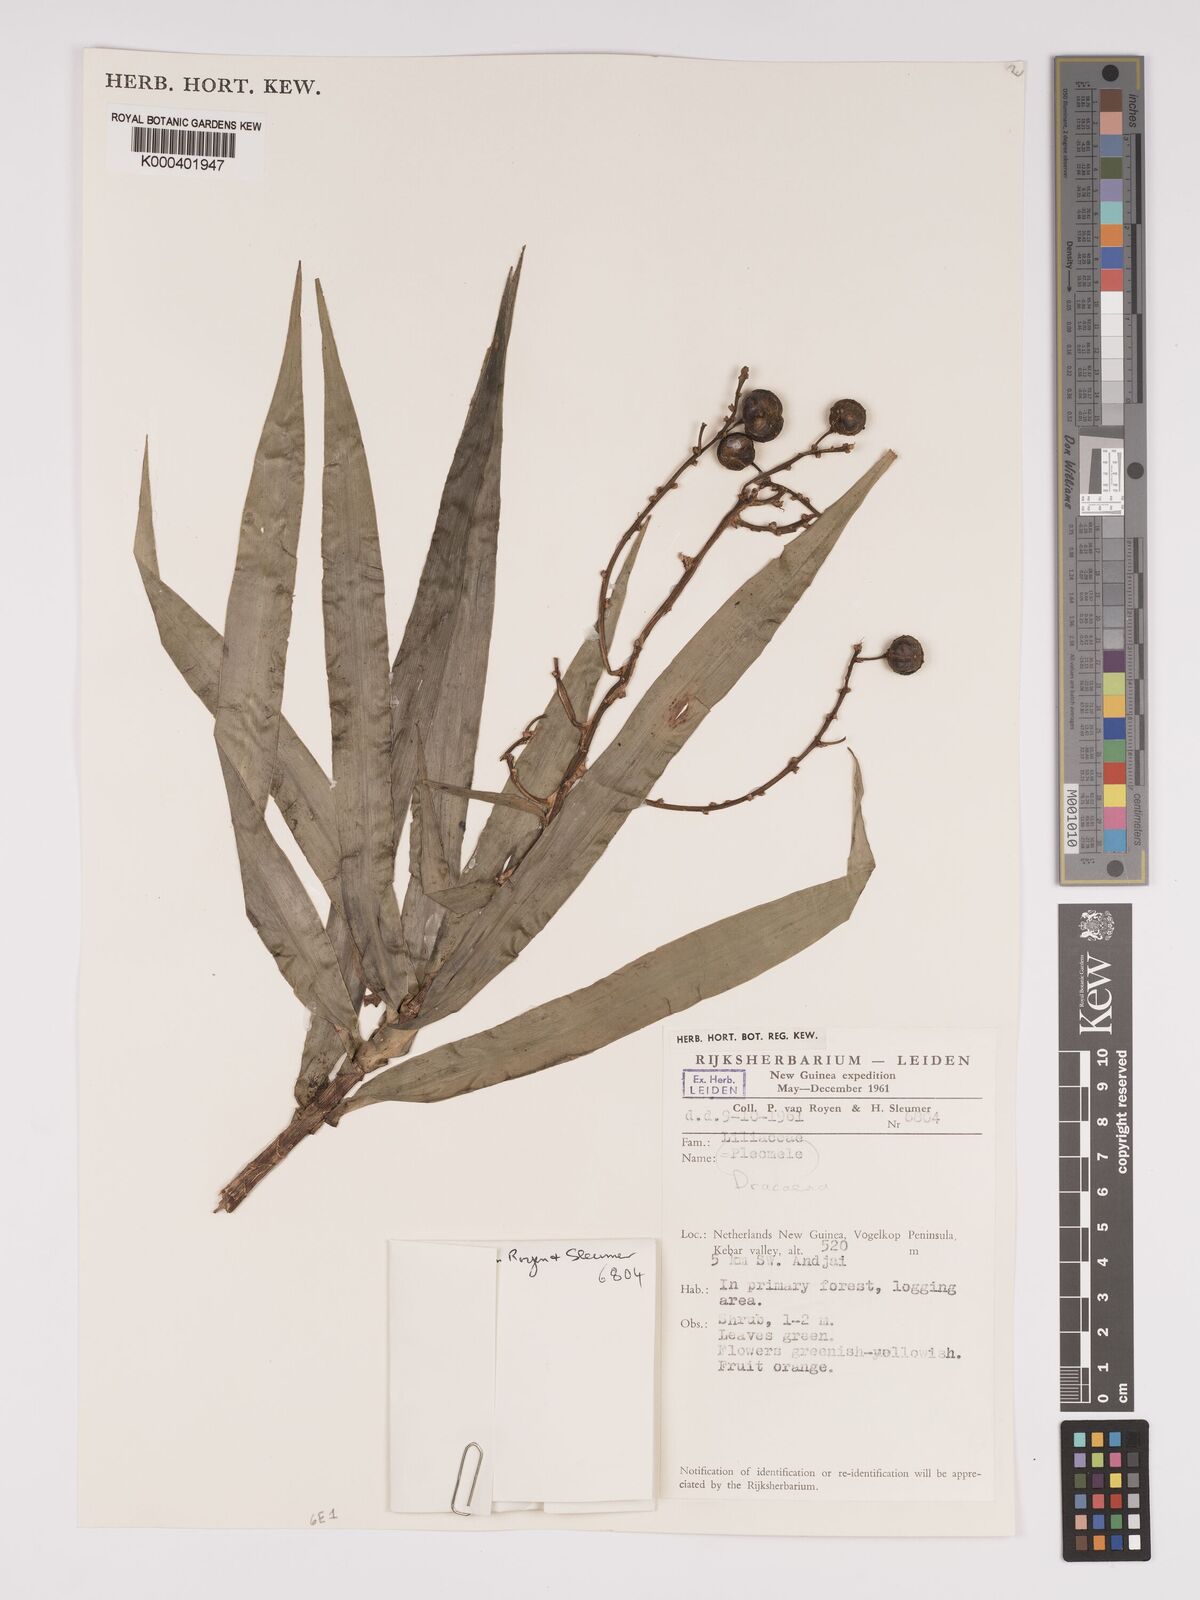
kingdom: Plantae
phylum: Tracheophyta
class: Liliopsida
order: Asparagales
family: Asparagaceae
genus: Dracaena
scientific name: Dracaena angustifolia
